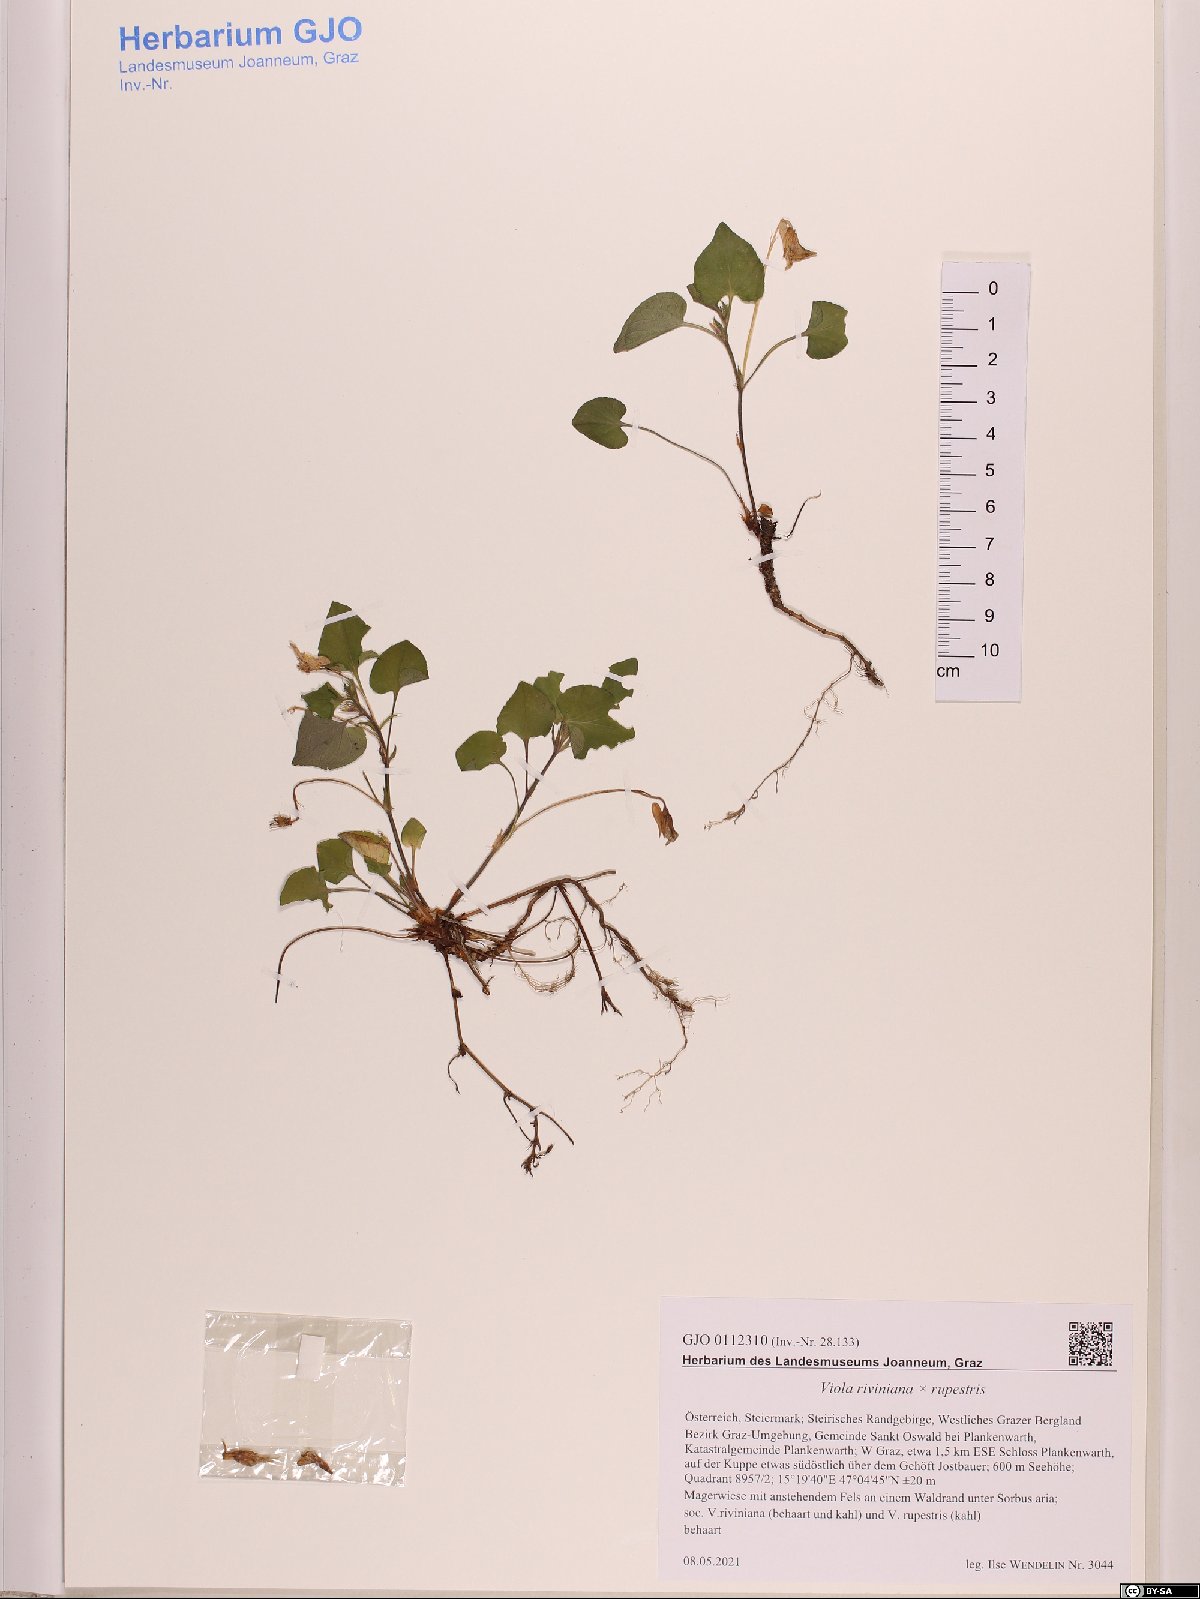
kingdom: Plantae
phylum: Tracheophyta
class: Magnoliopsida
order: Malpighiales
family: Violaceae
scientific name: Violaceae
